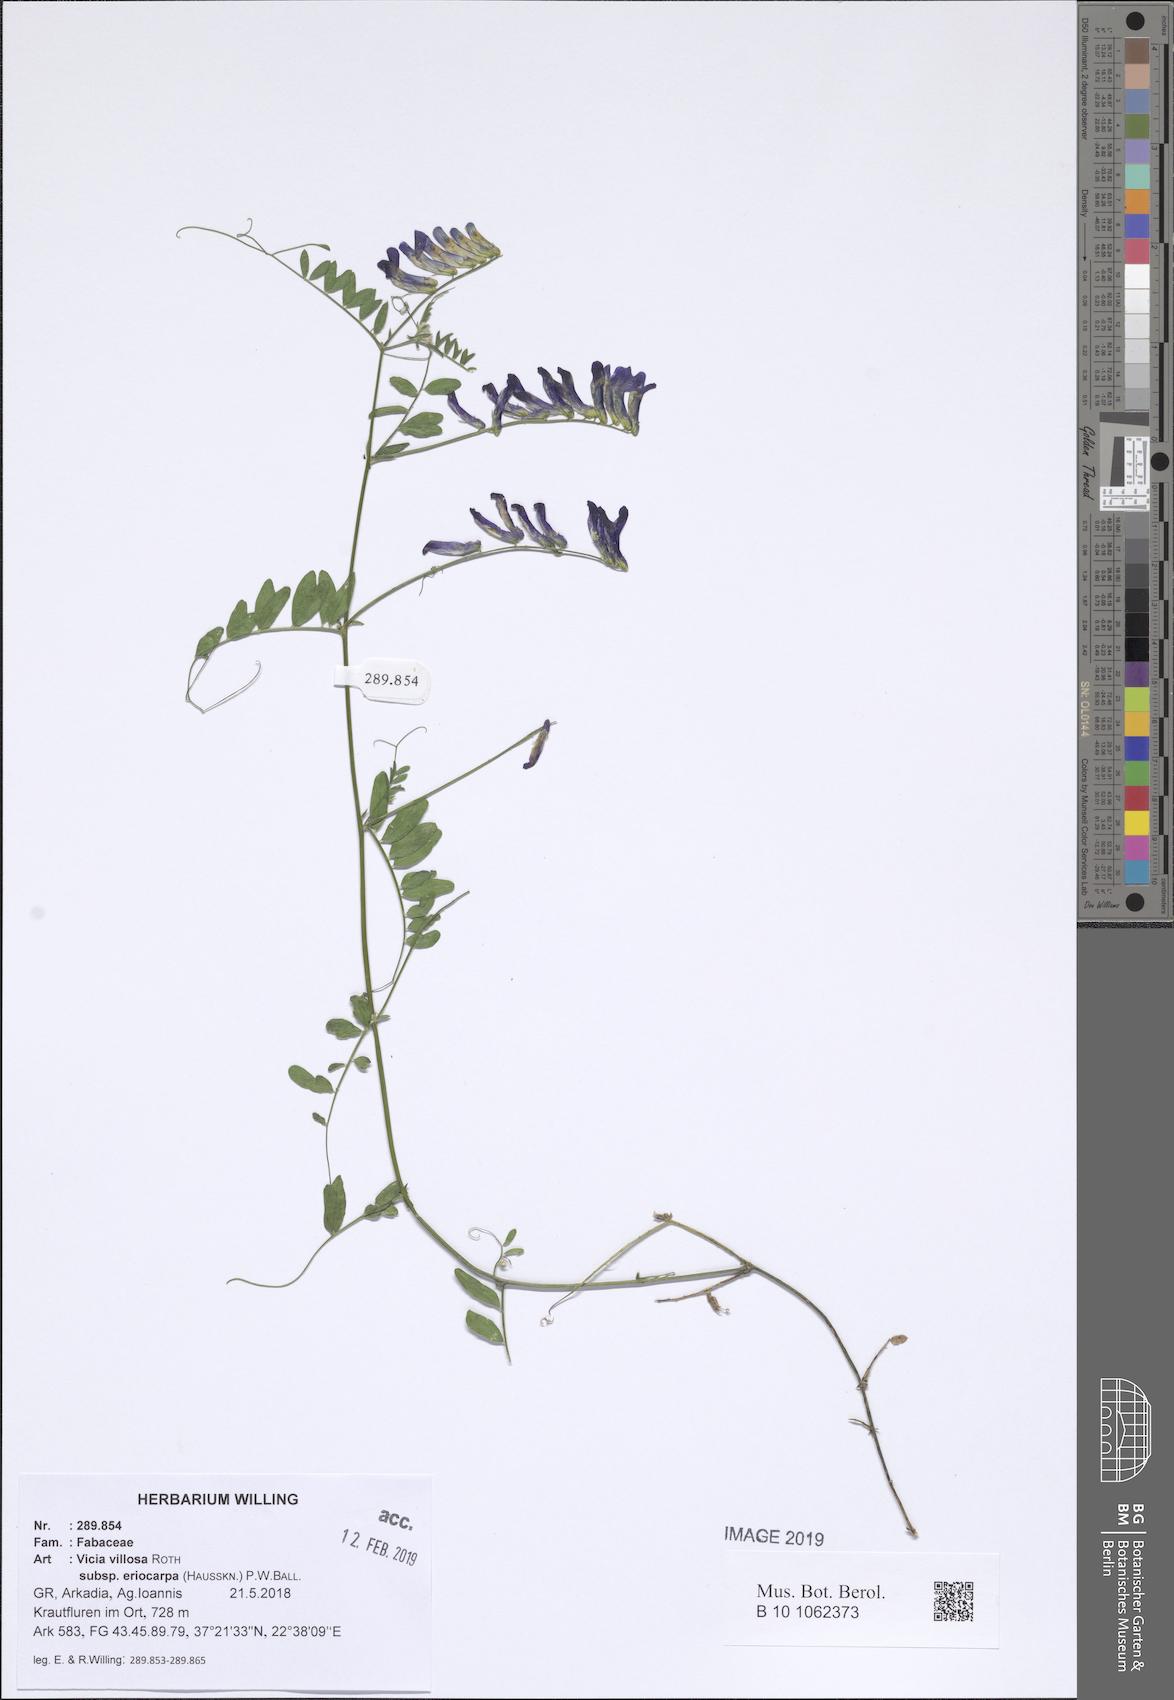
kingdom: Plantae
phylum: Tracheophyta
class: Magnoliopsida
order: Fabales
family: Fabaceae
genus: Vicia
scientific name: Vicia eriocarpa
